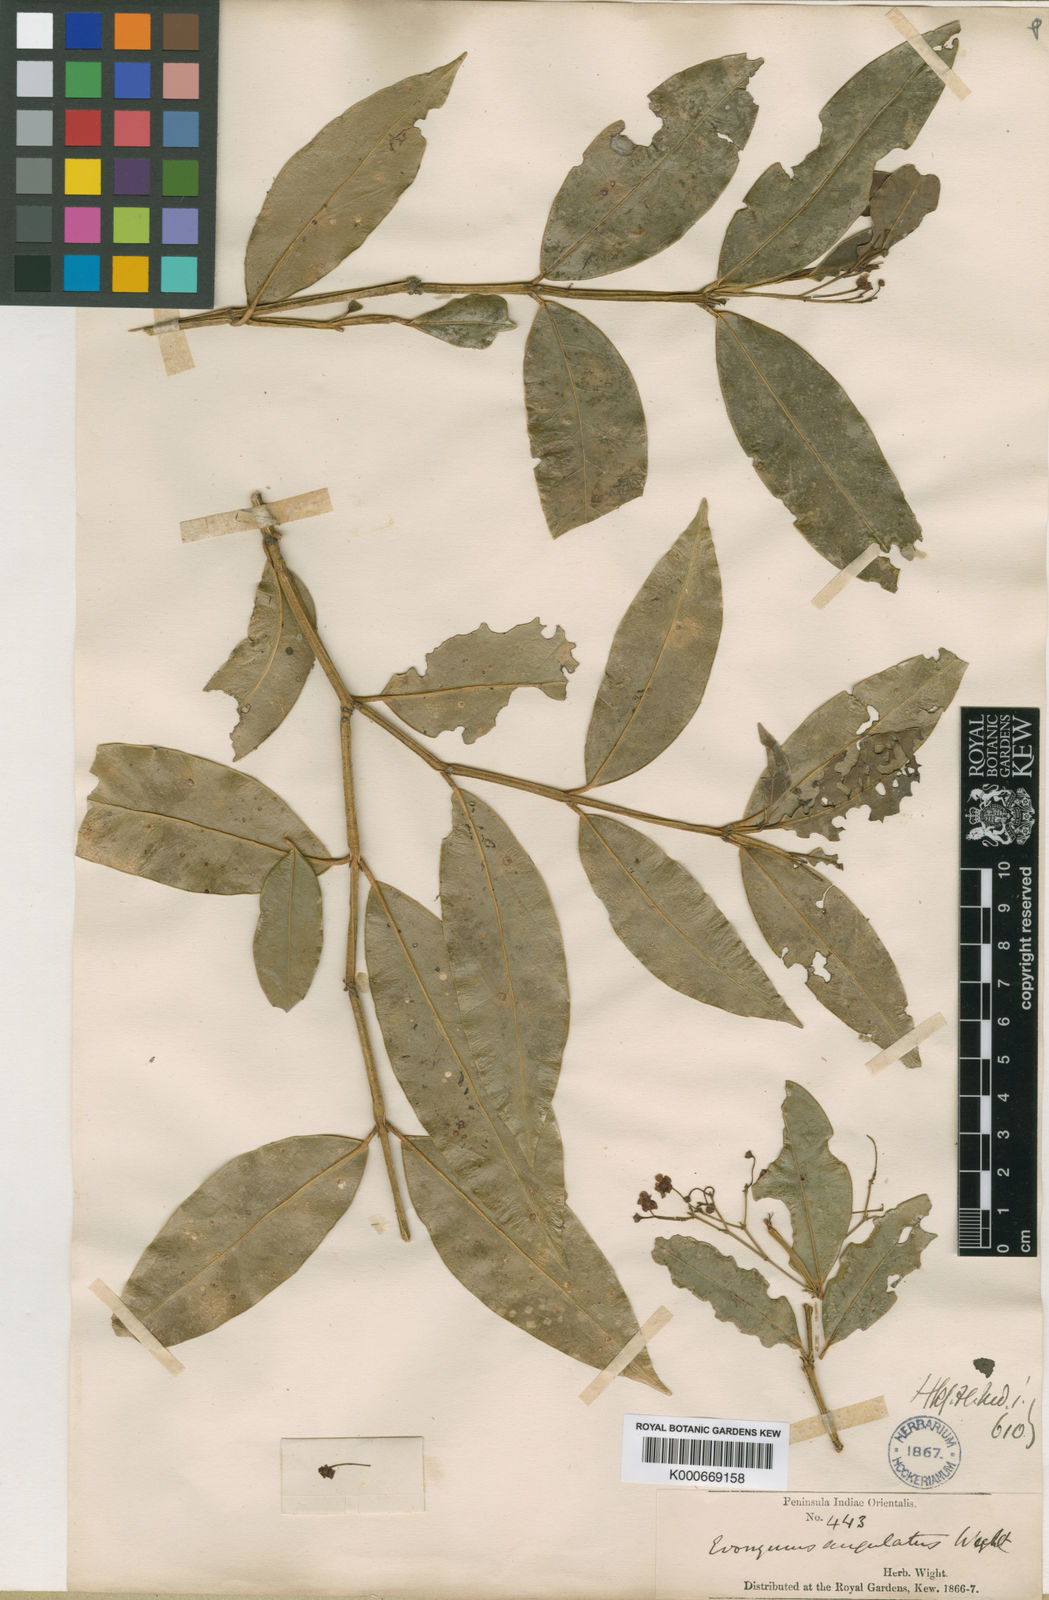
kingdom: Plantae
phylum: Tracheophyta
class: Magnoliopsida
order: Celastrales
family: Celastraceae
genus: Euonymus
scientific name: Euonymus angulatus
